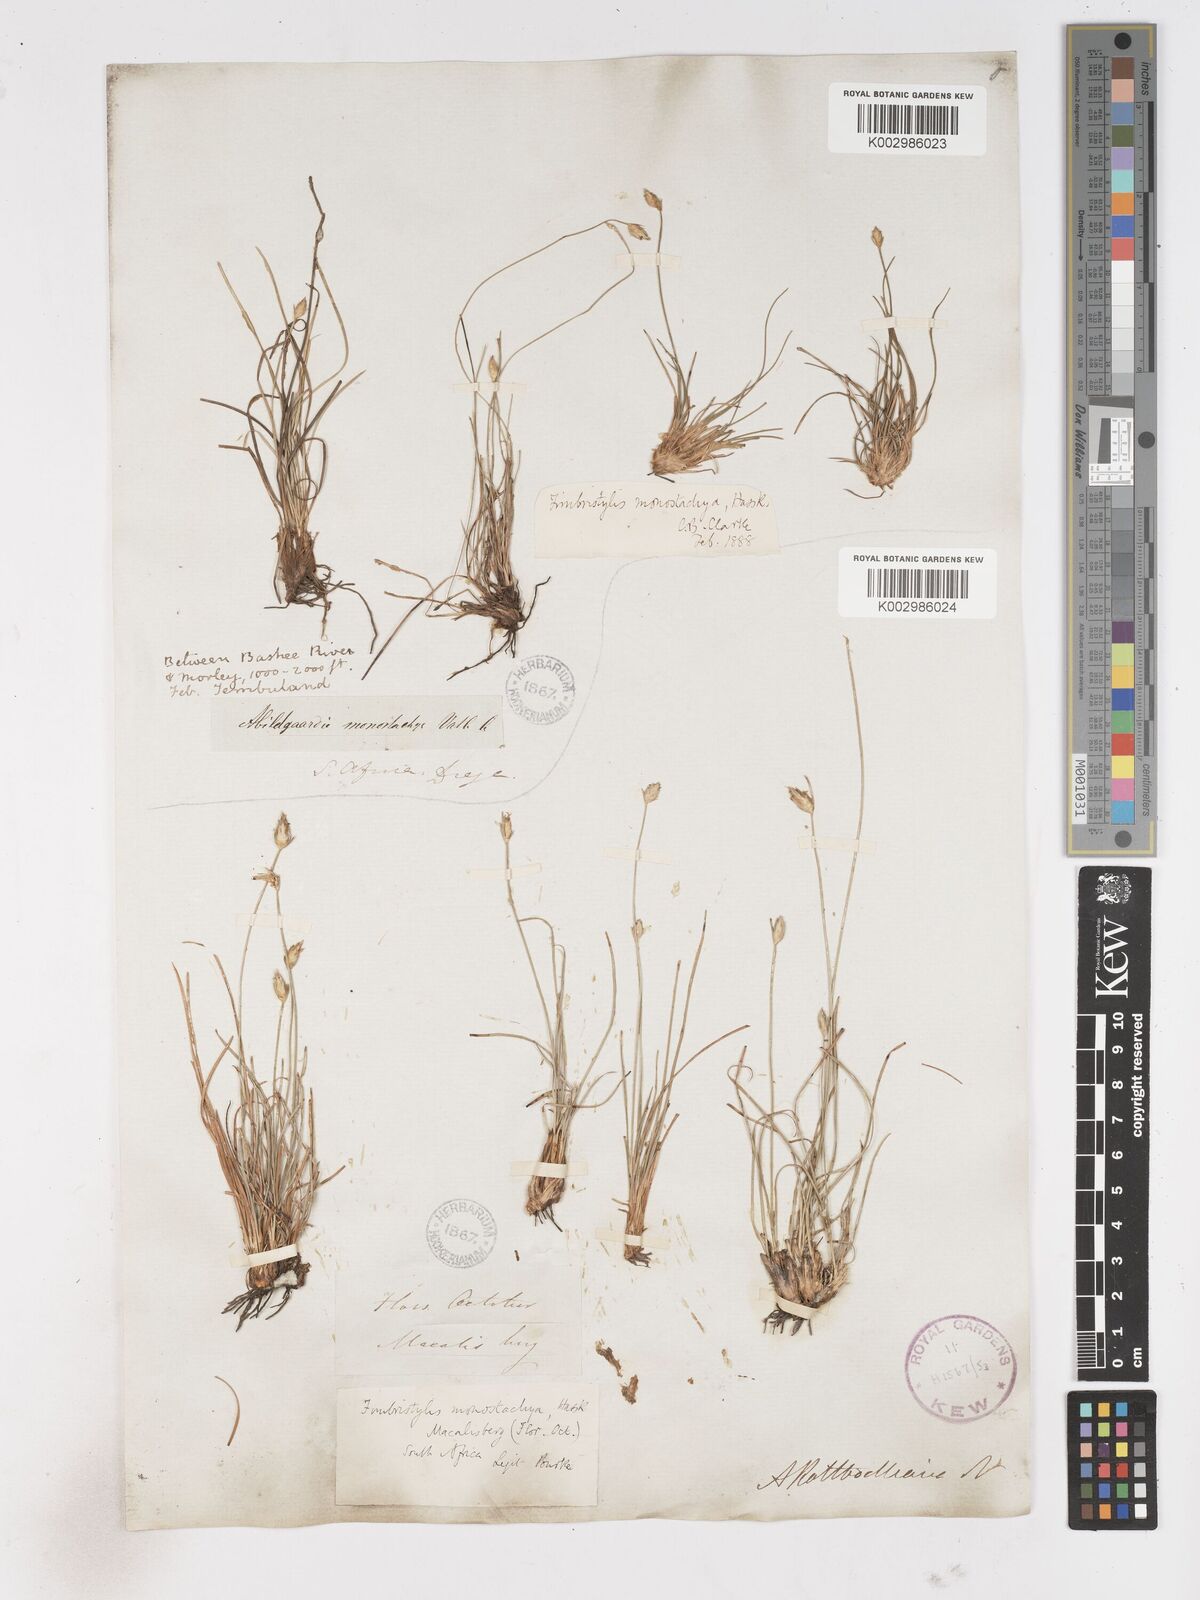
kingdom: Plantae
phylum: Tracheophyta
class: Liliopsida
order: Poales
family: Cyperaceae
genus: Abildgaardia
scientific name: Abildgaardia ovata
